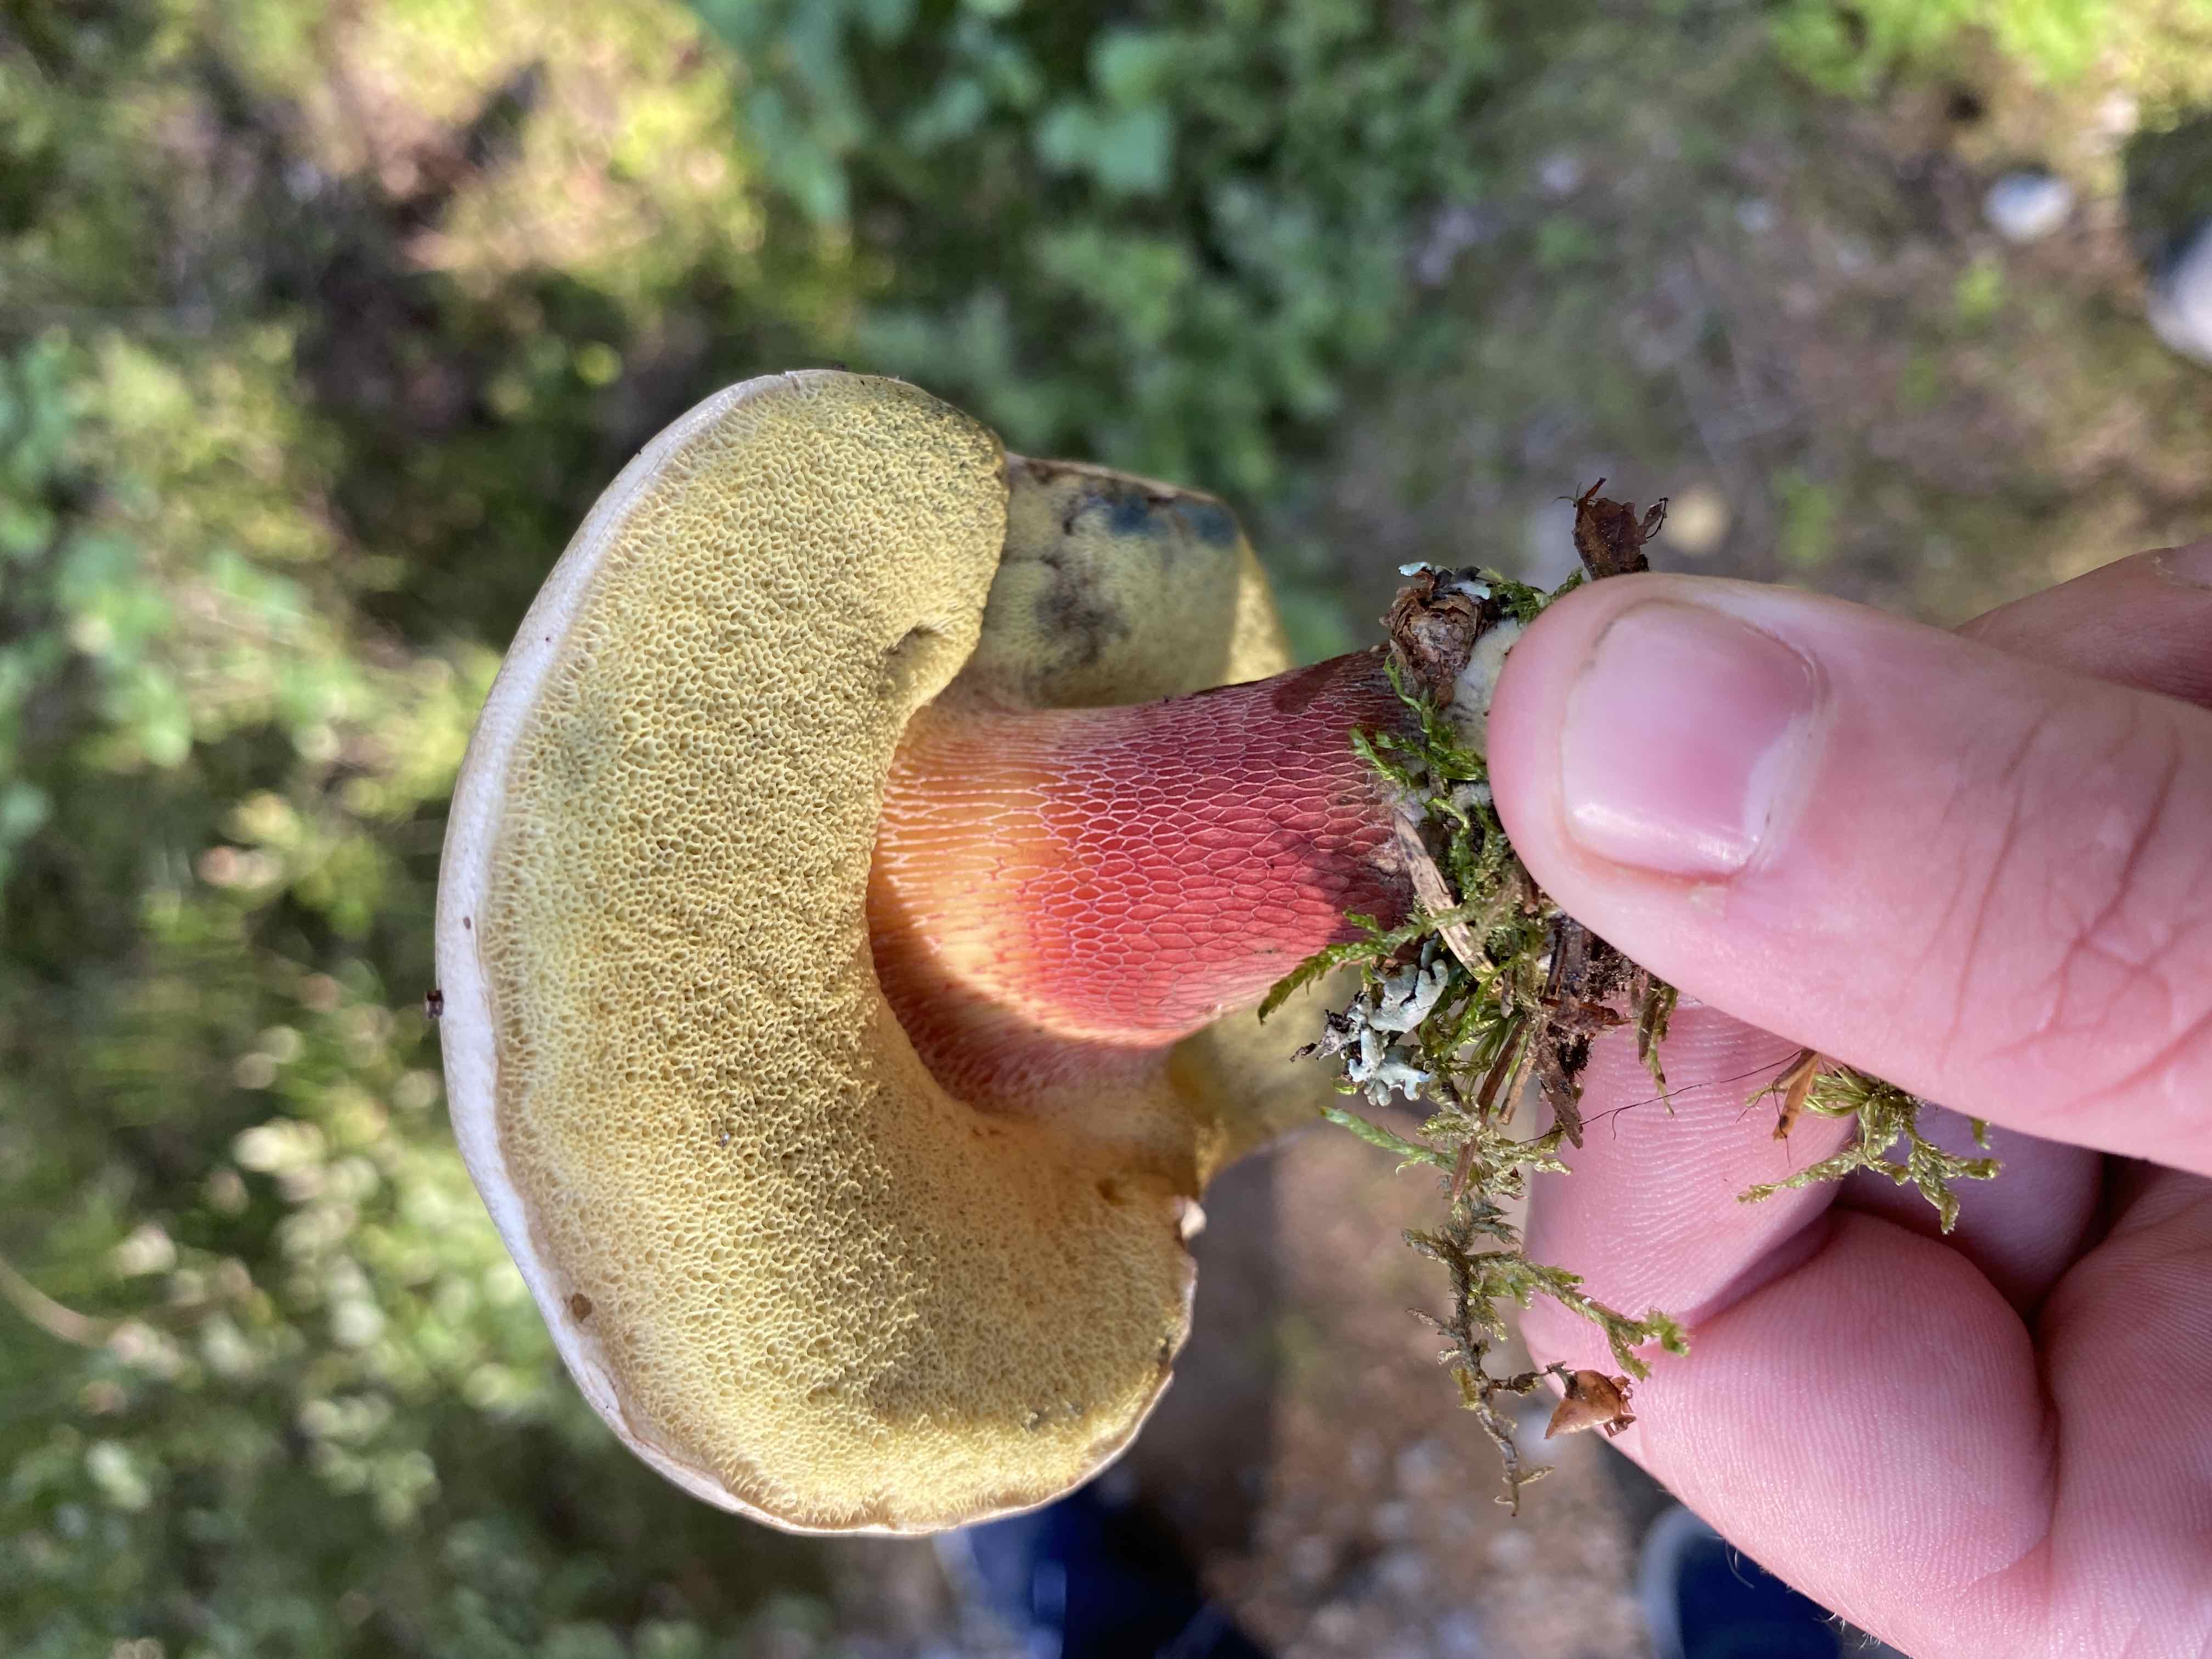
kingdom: Fungi
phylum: Basidiomycota
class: Agaricomycetes
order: Boletales
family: Boletaceae
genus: Caloboletus
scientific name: Caloboletus calopus
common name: skønfodet rørhat
